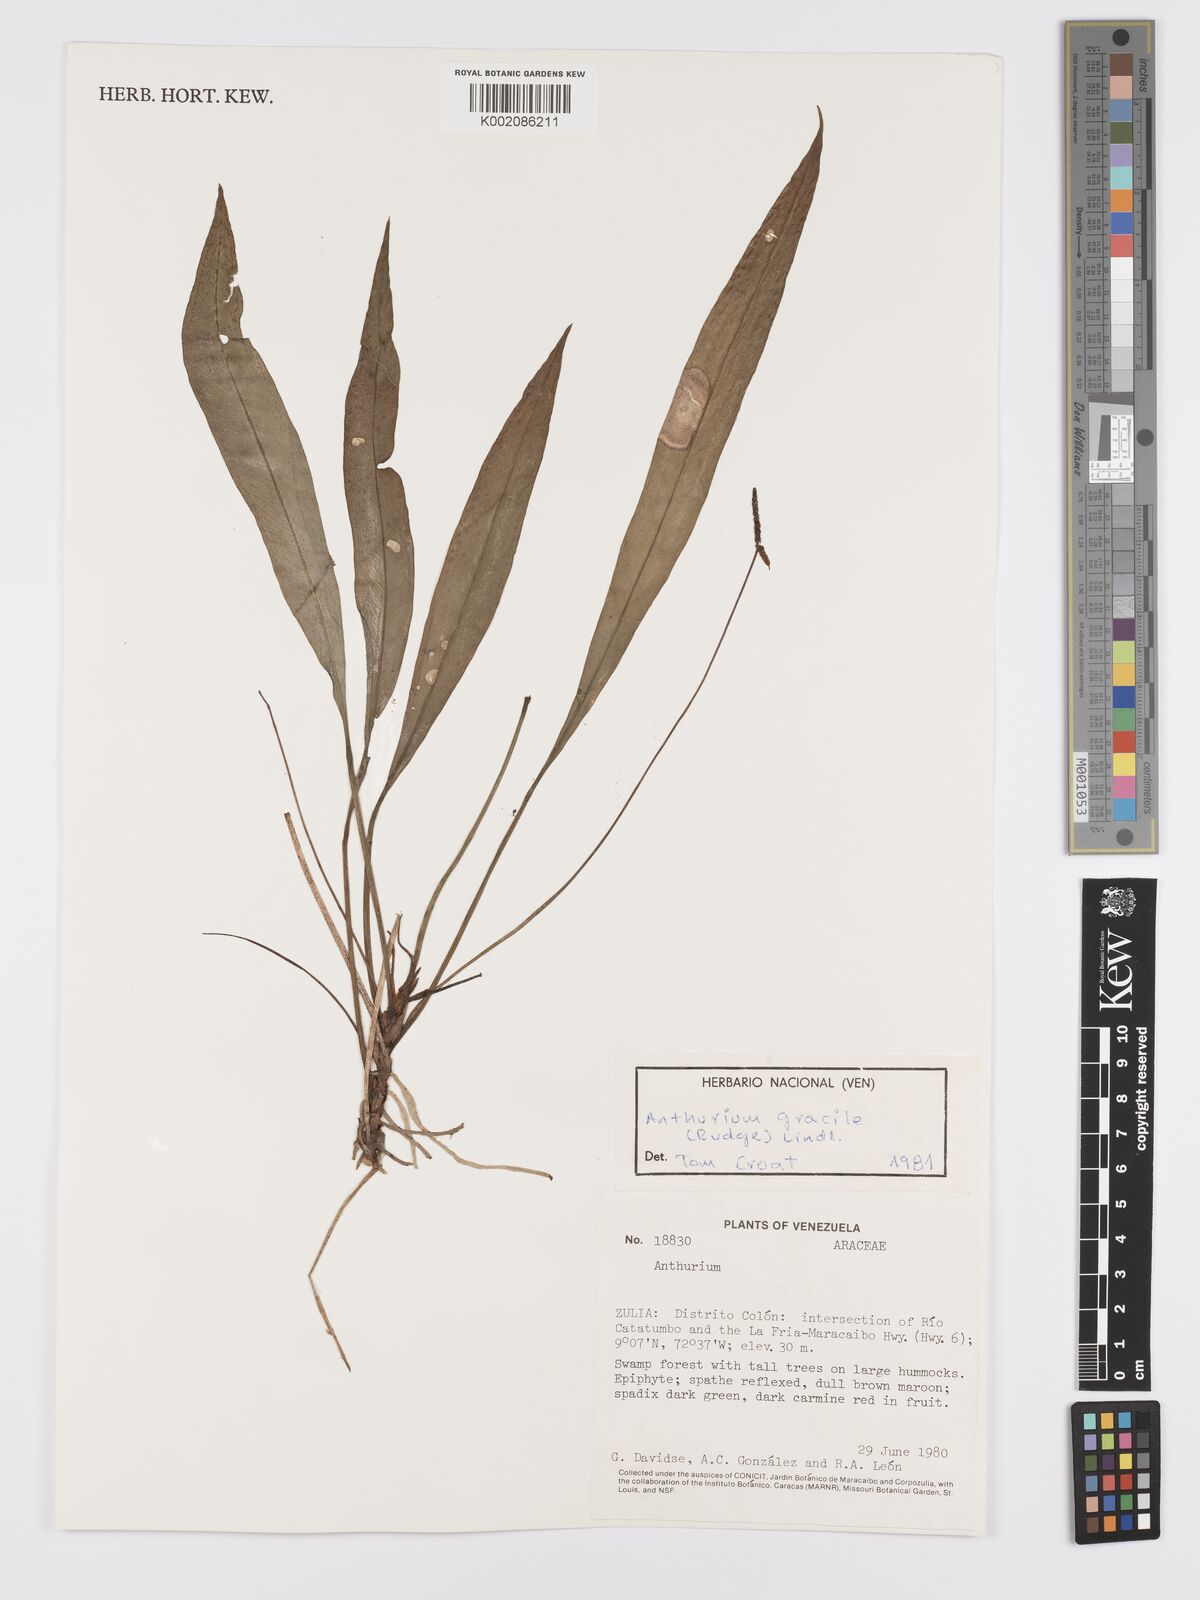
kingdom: Plantae
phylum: Tracheophyta
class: Liliopsida
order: Alismatales
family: Araceae
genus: Anthurium
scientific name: Anthurium gracile
